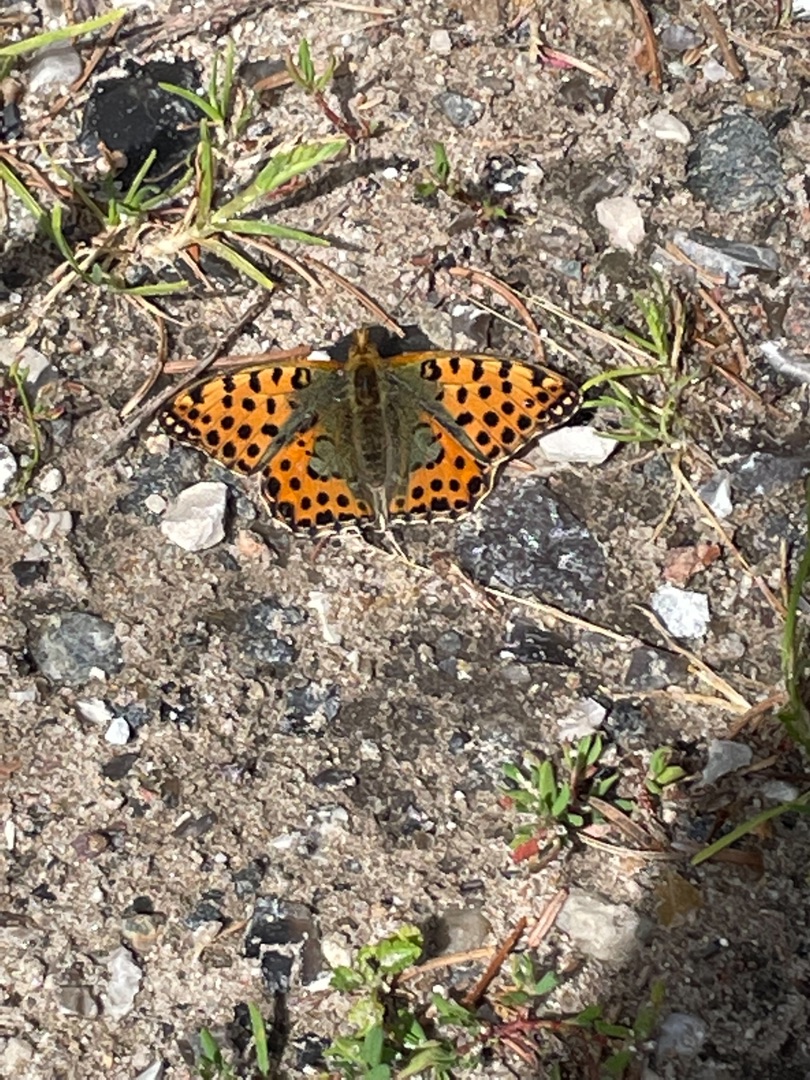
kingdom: Animalia
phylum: Arthropoda
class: Insecta
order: Lepidoptera
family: Nymphalidae
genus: Issoria
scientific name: Issoria lathonia
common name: Storplettet perlemorsommerfugl
